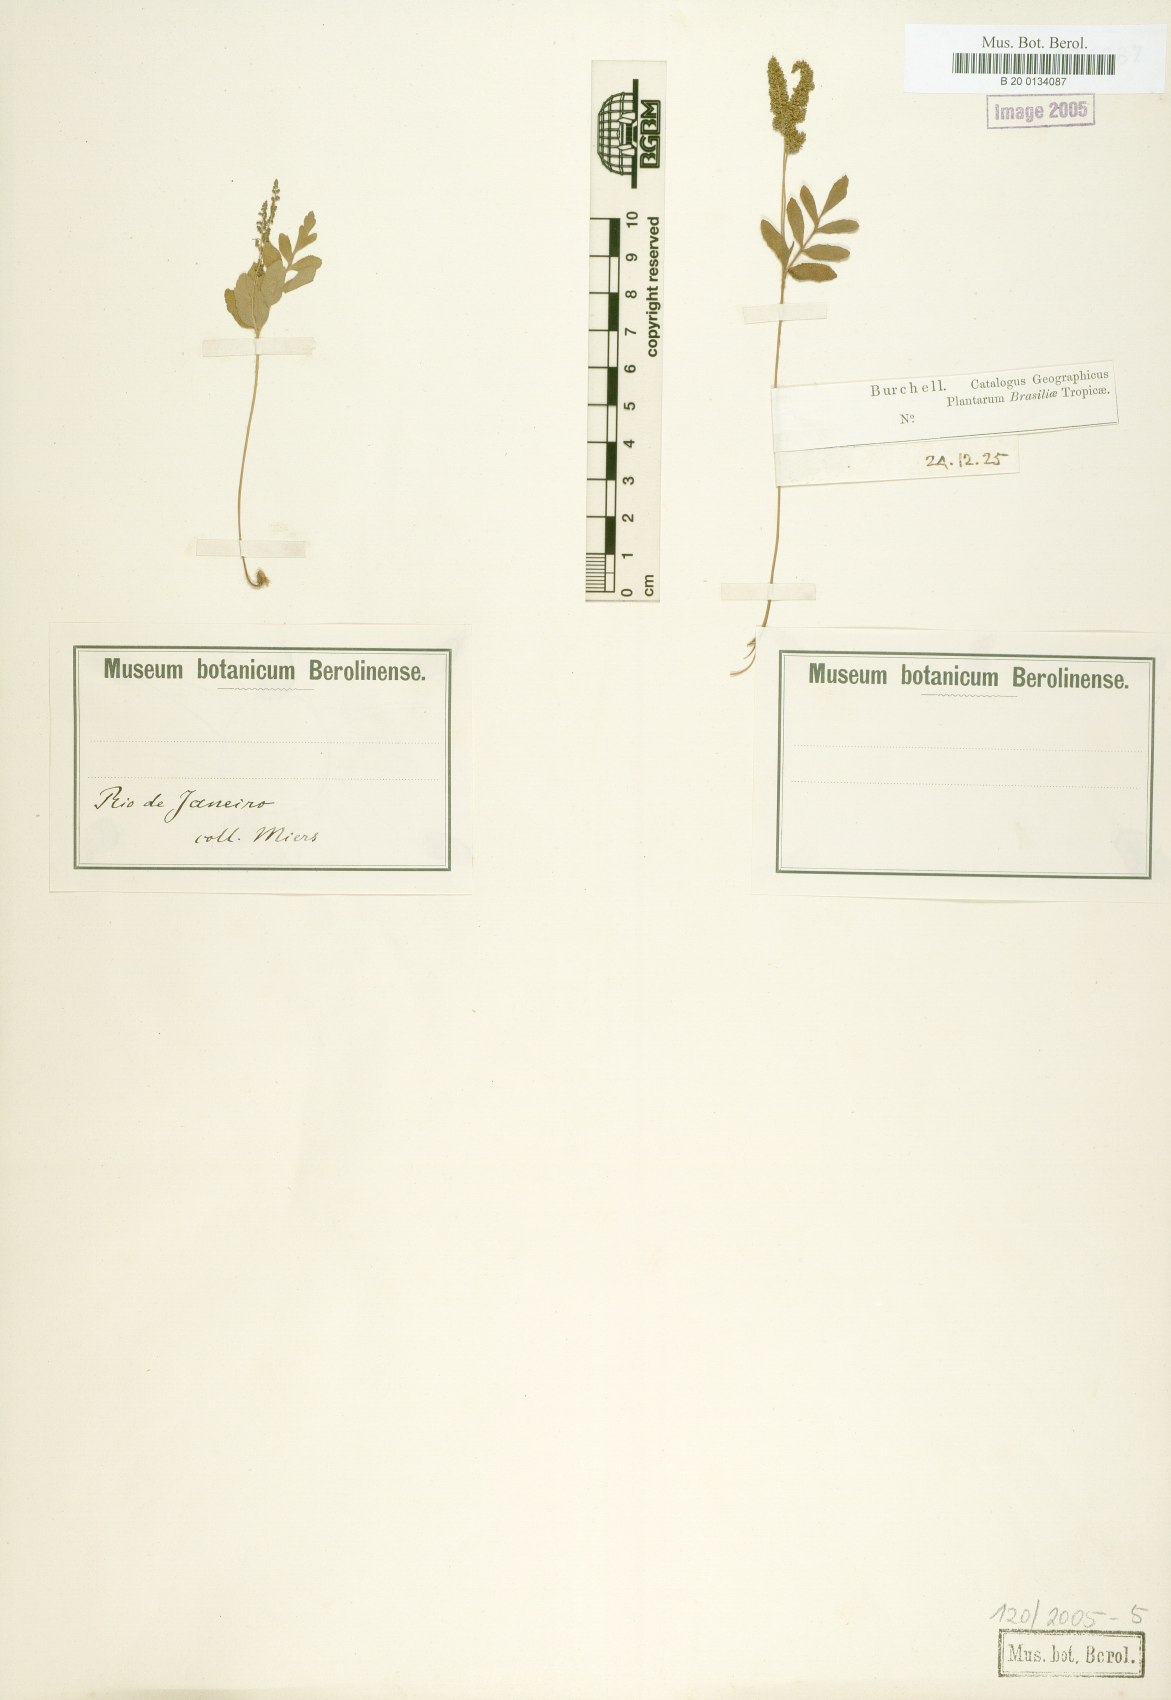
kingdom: Plantae
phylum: Tracheophyta
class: Polypodiopsida
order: Schizaeales
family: Anemiaceae
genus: Anemia
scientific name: Anemia hispida
